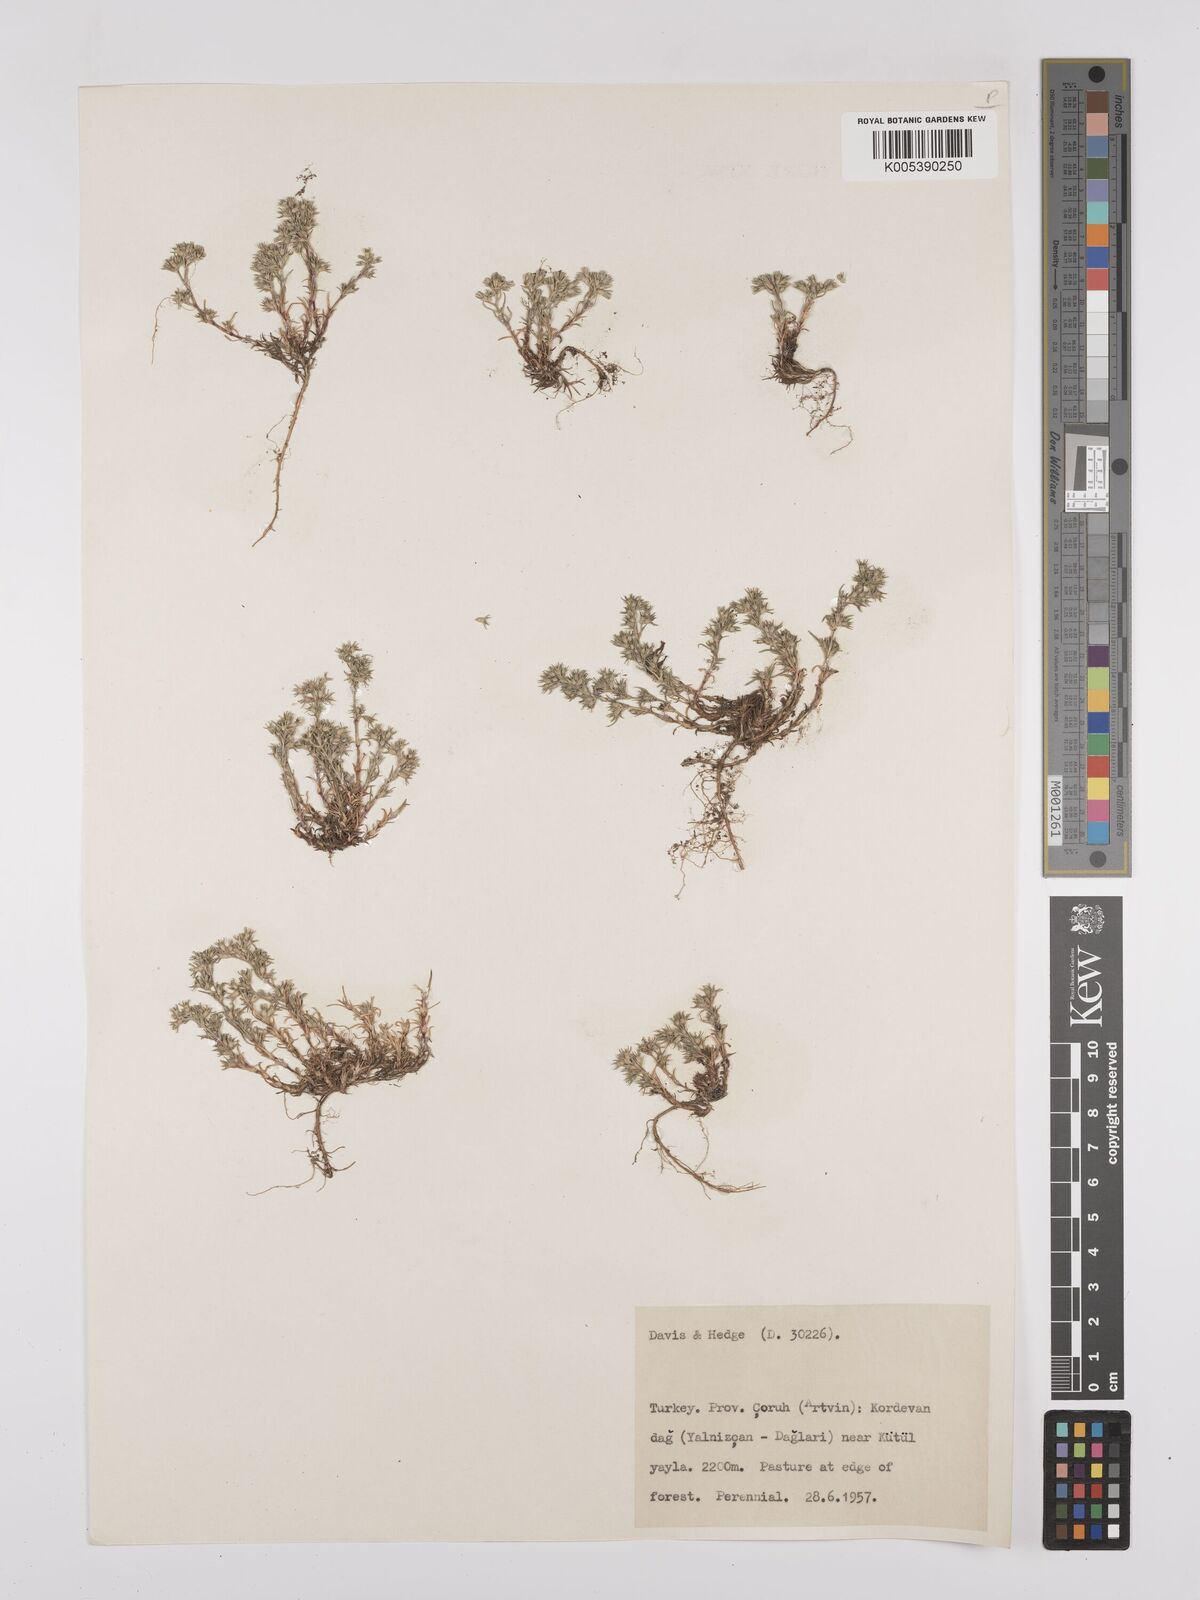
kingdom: Plantae
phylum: Tracheophyta
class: Magnoliopsida
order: Caryophyllales
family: Caryophyllaceae
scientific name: Caryophyllaceae
